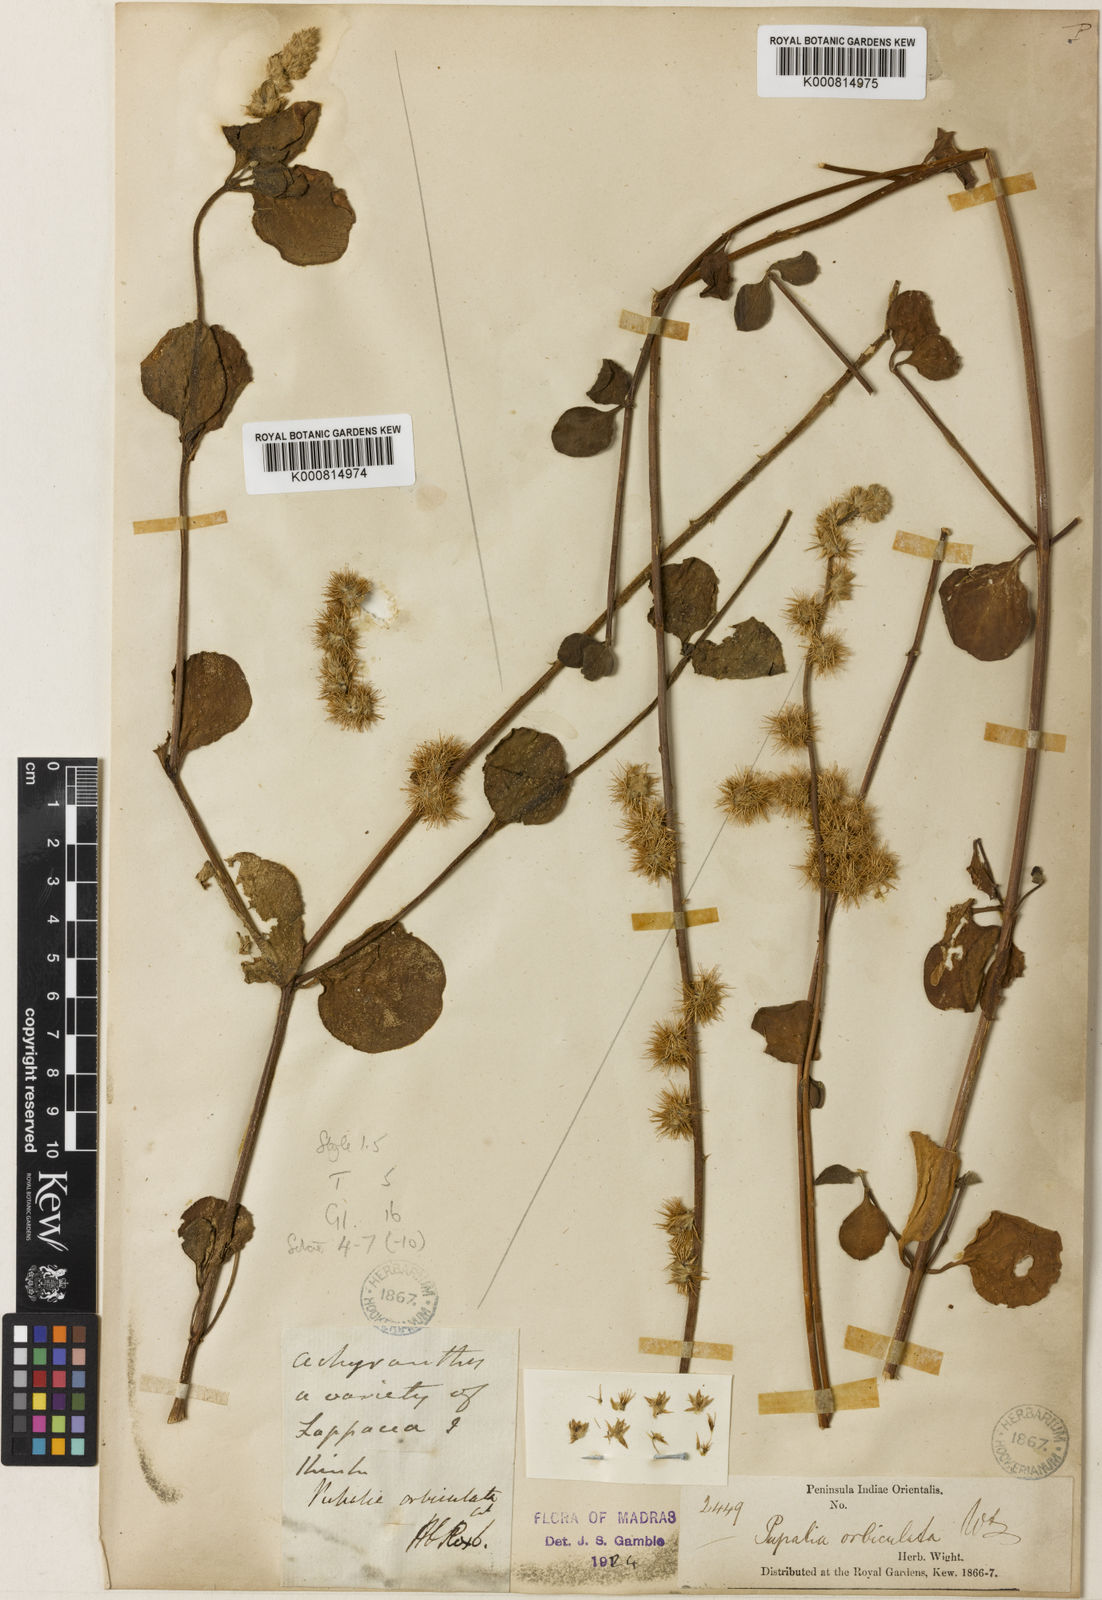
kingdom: Plantae
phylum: Tracheophyta
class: Magnoliopsida
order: Caryophyllales
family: Amaranthaceae
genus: Pupalia
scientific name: Pupalia lappacea
